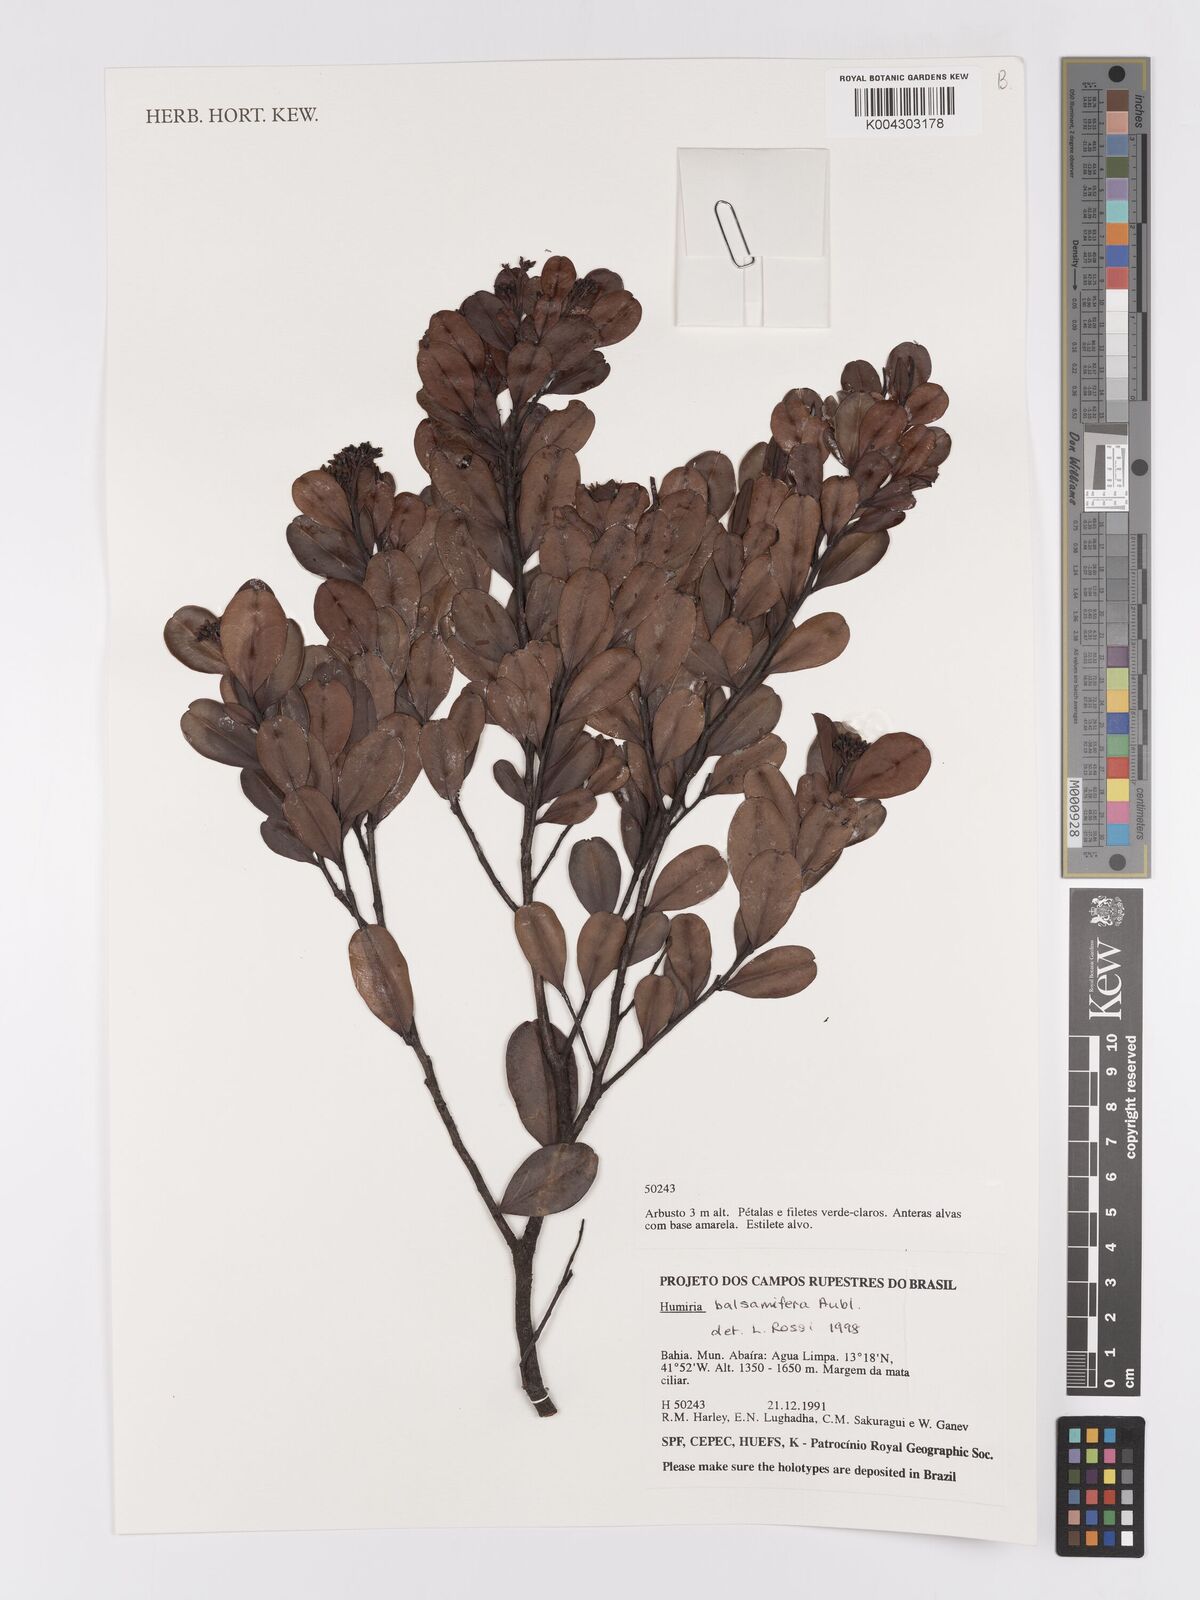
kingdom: Plantae
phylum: Tracheophyta
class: Magnoliopsida
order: Malpighiales
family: Humiriaceae
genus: Humiria
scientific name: Humiria parvifolia
